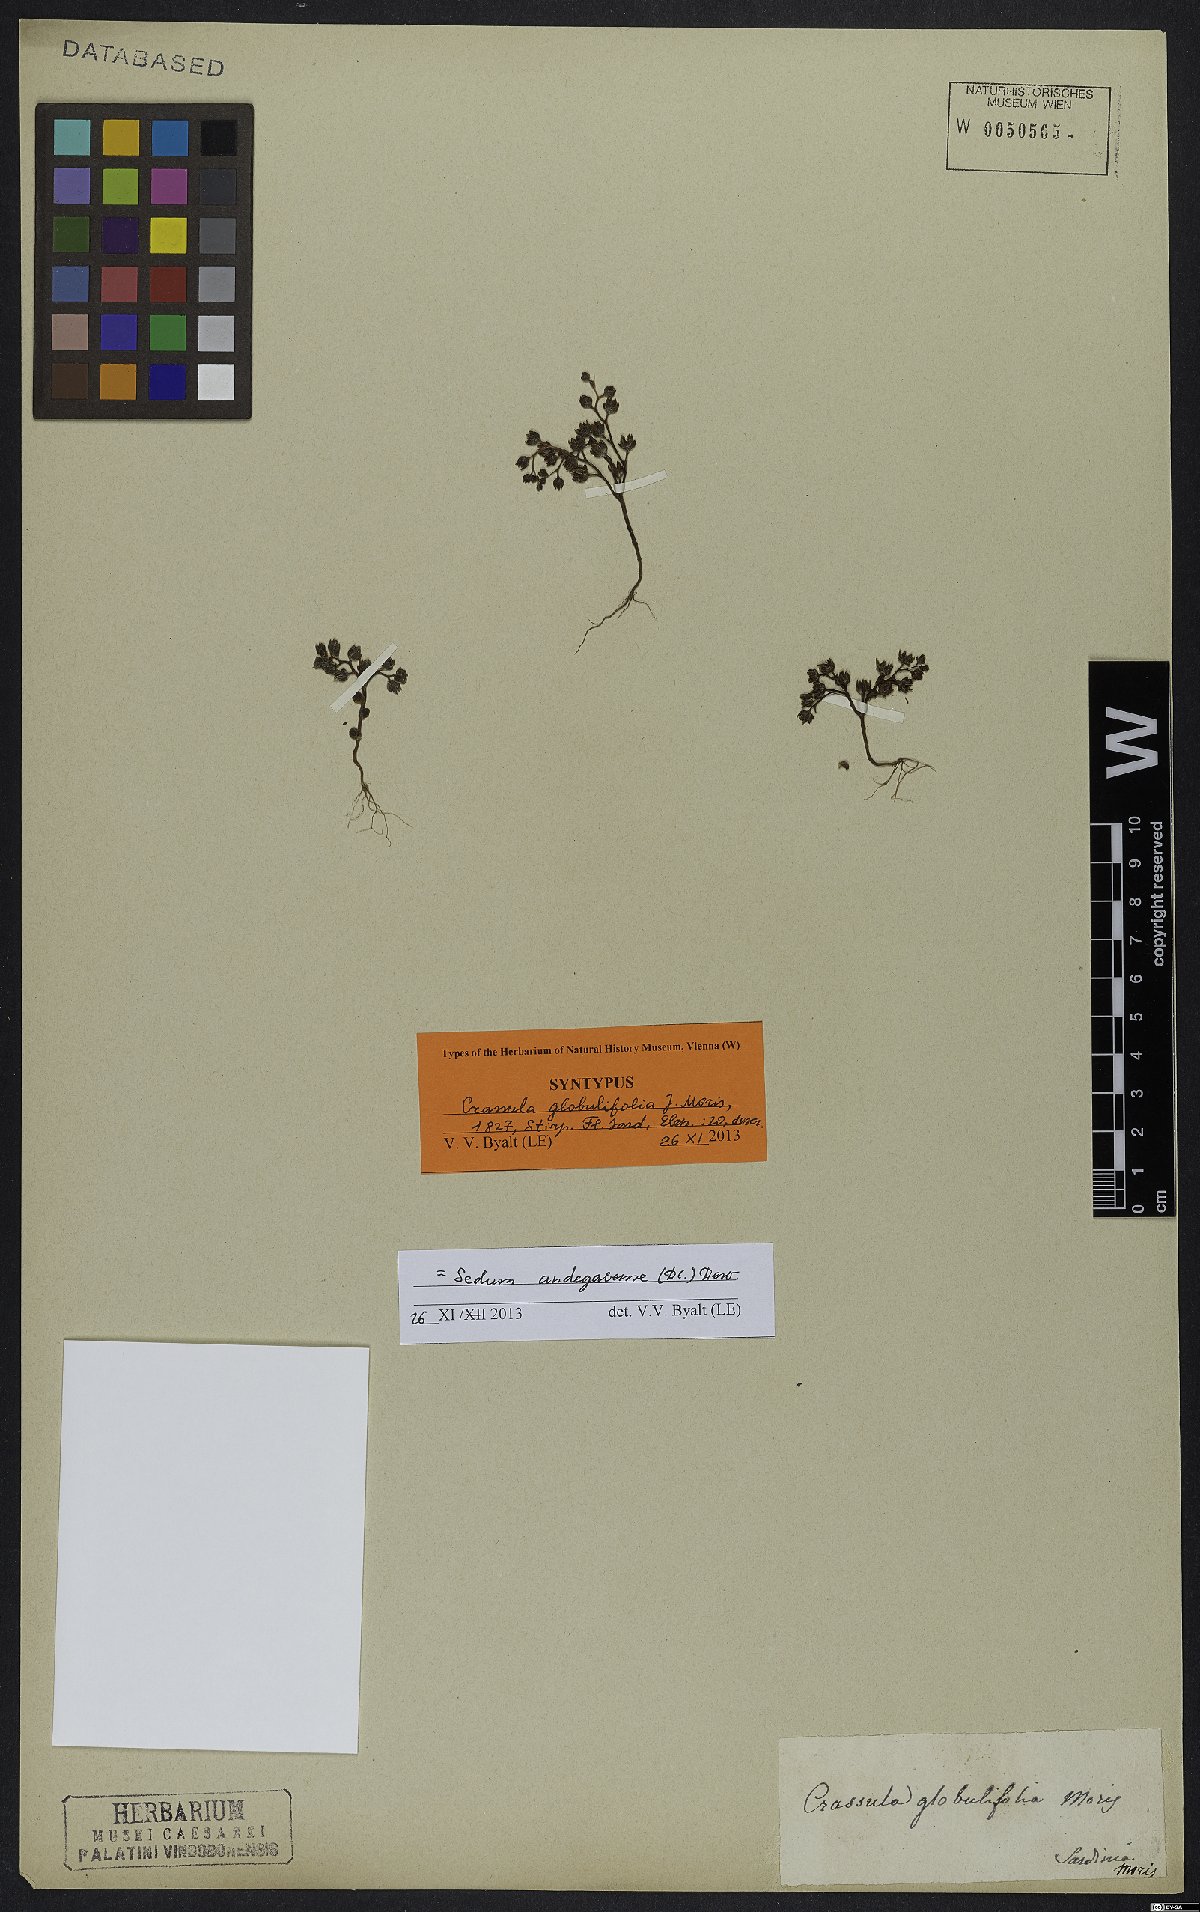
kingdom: Plantae
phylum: Tracheophyta
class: Magnoliopsida
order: Saxifragales
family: Crassulaceae
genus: Sedum
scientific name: Sedum andegavense
